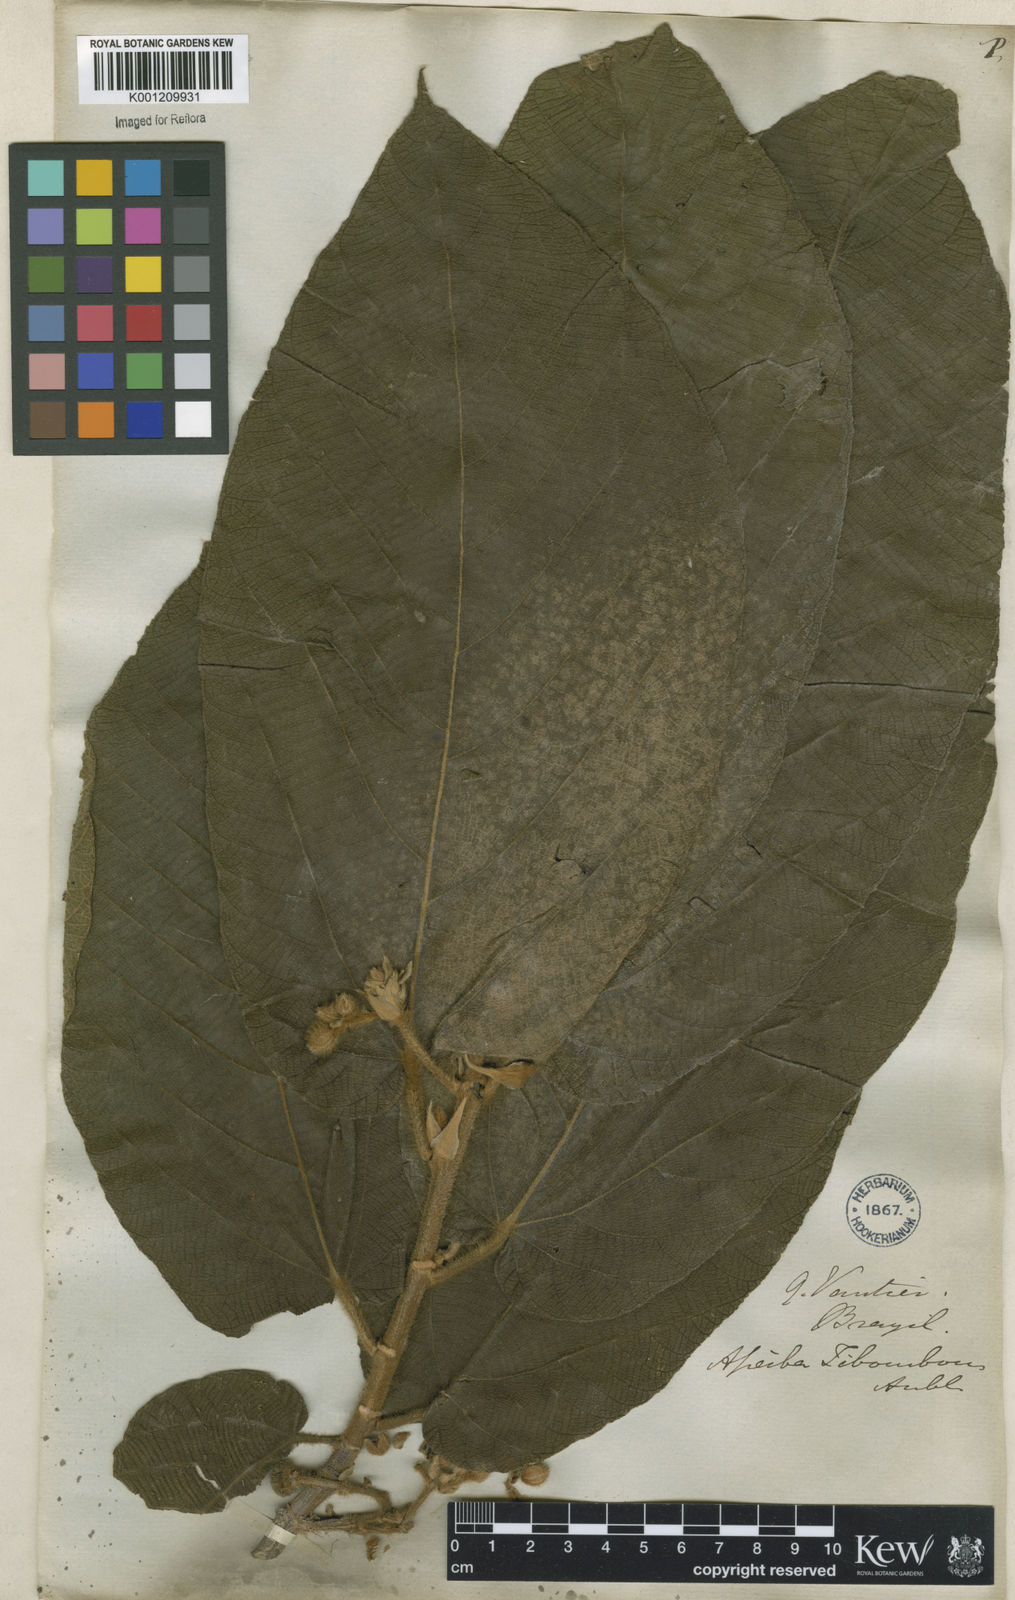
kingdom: Plantae
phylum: Tracheophyta
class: Magnoliopsida
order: Malvales
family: Malvaceae
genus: Apeiba
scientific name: Apeiba tibourbou
